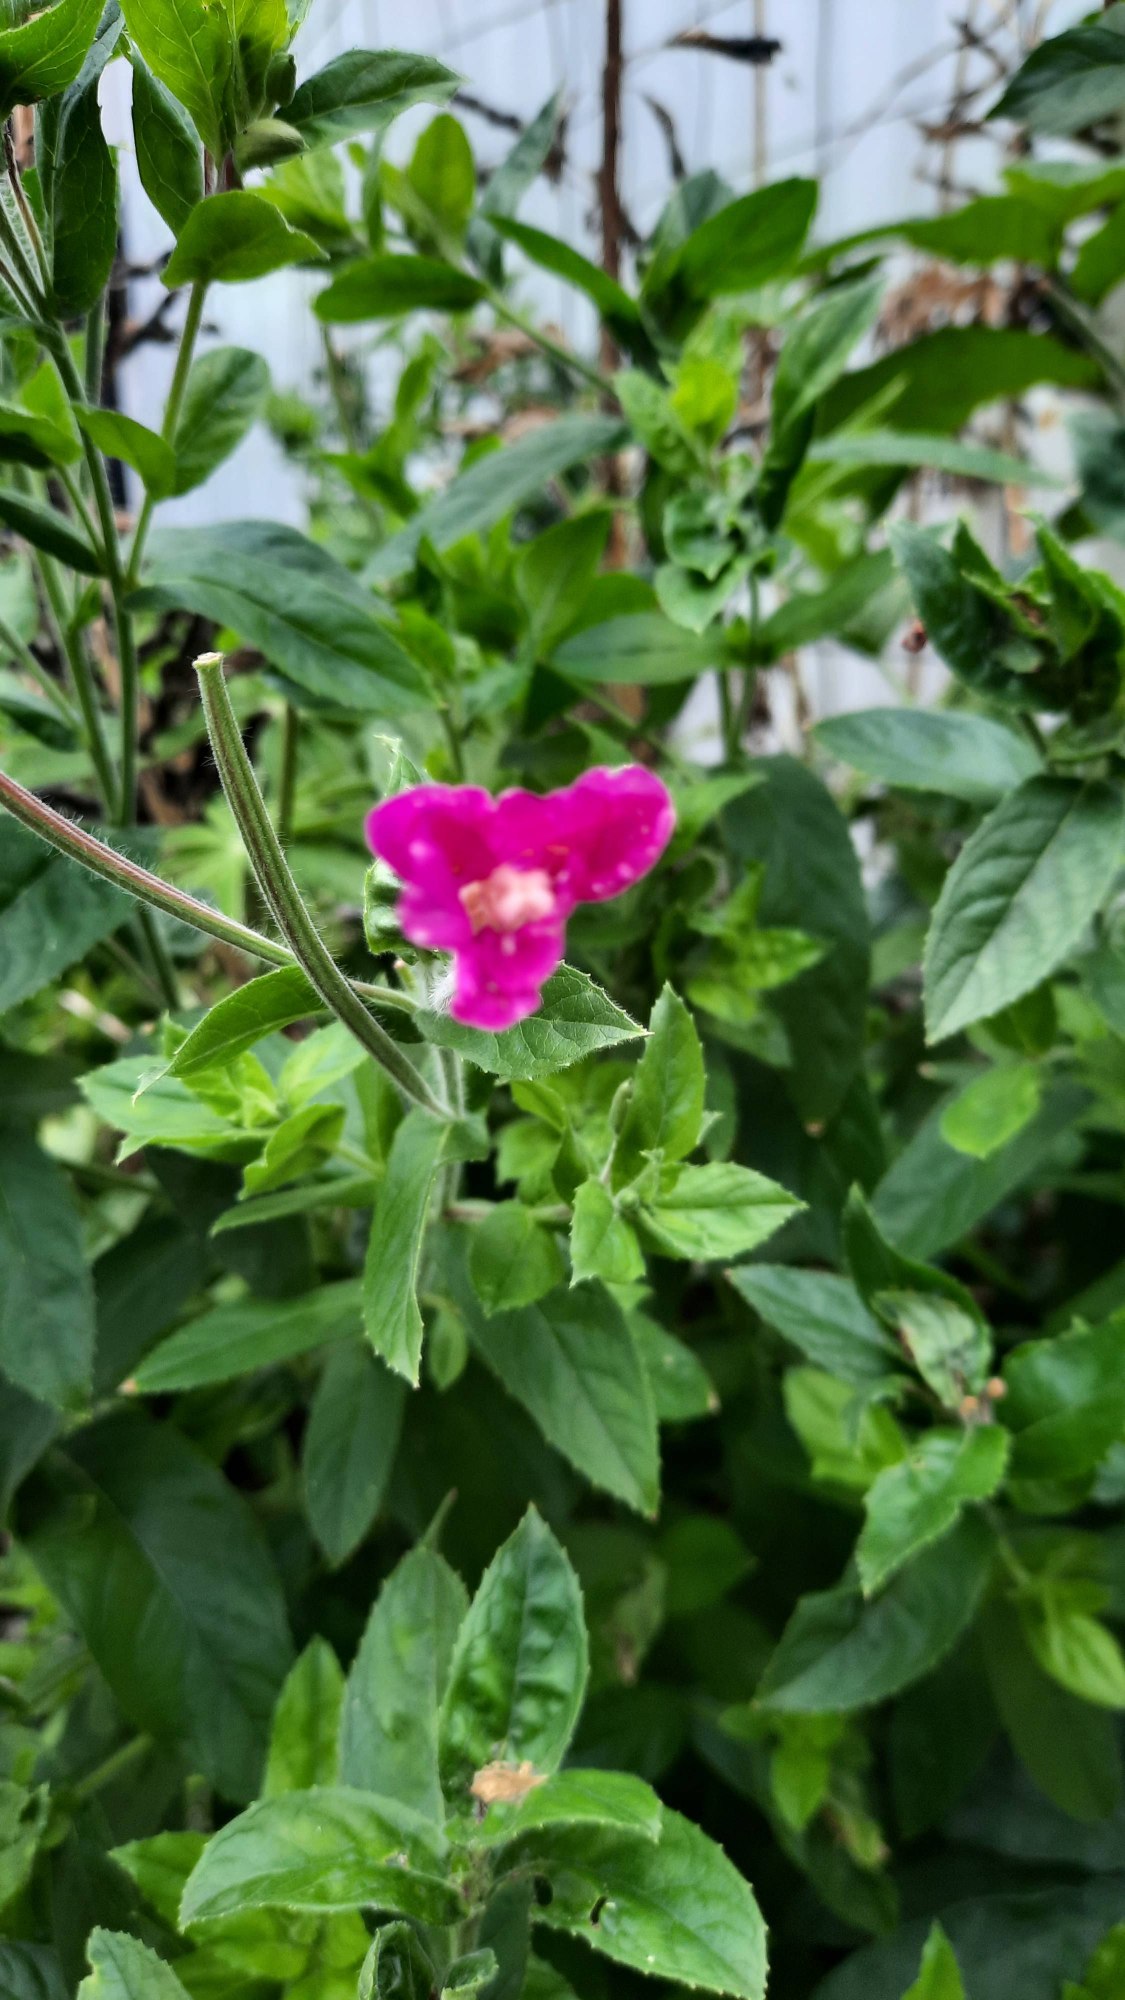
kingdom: Plantae
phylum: Tracheophyta
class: Magnoliopsida
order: Myrtales
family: Onagraceae
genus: Epilobium
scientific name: Epilobium hirsutum
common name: Lådden dueurt
